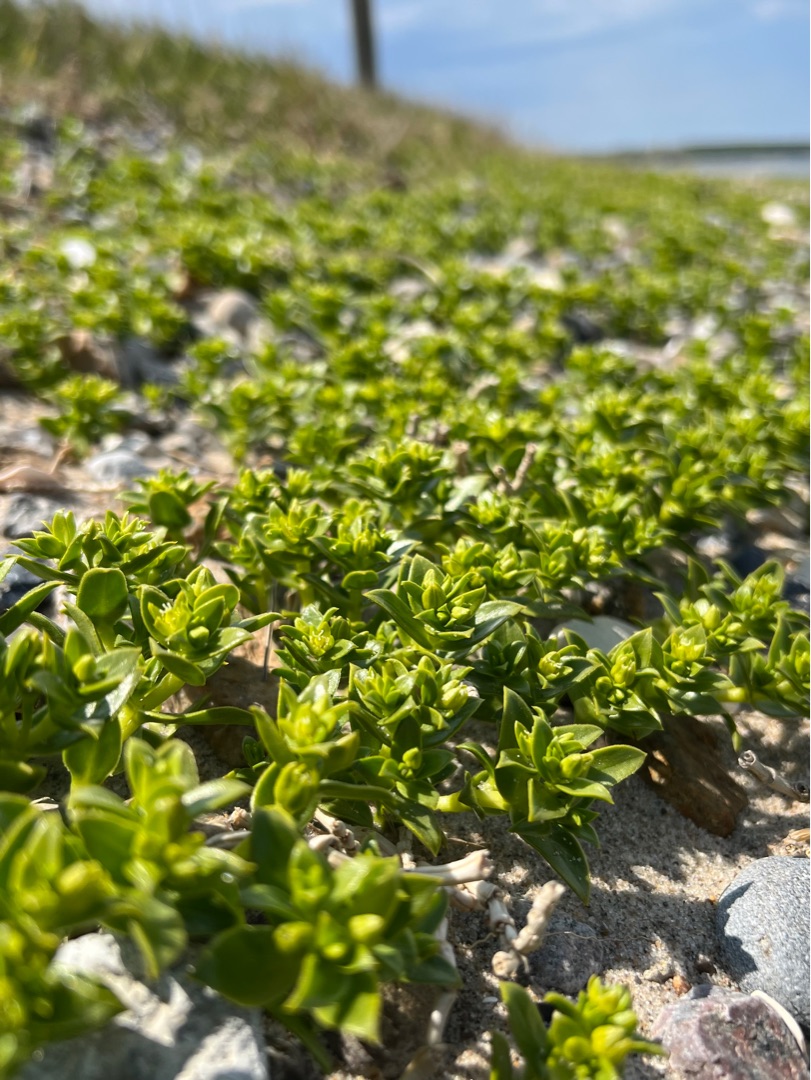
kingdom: Plantae
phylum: Tracheophyta
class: Magnoliopsida
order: Caryophyllales
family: Caryophyllaceae
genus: Honckenya
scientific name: Honckenya peploides
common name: Strandarve
